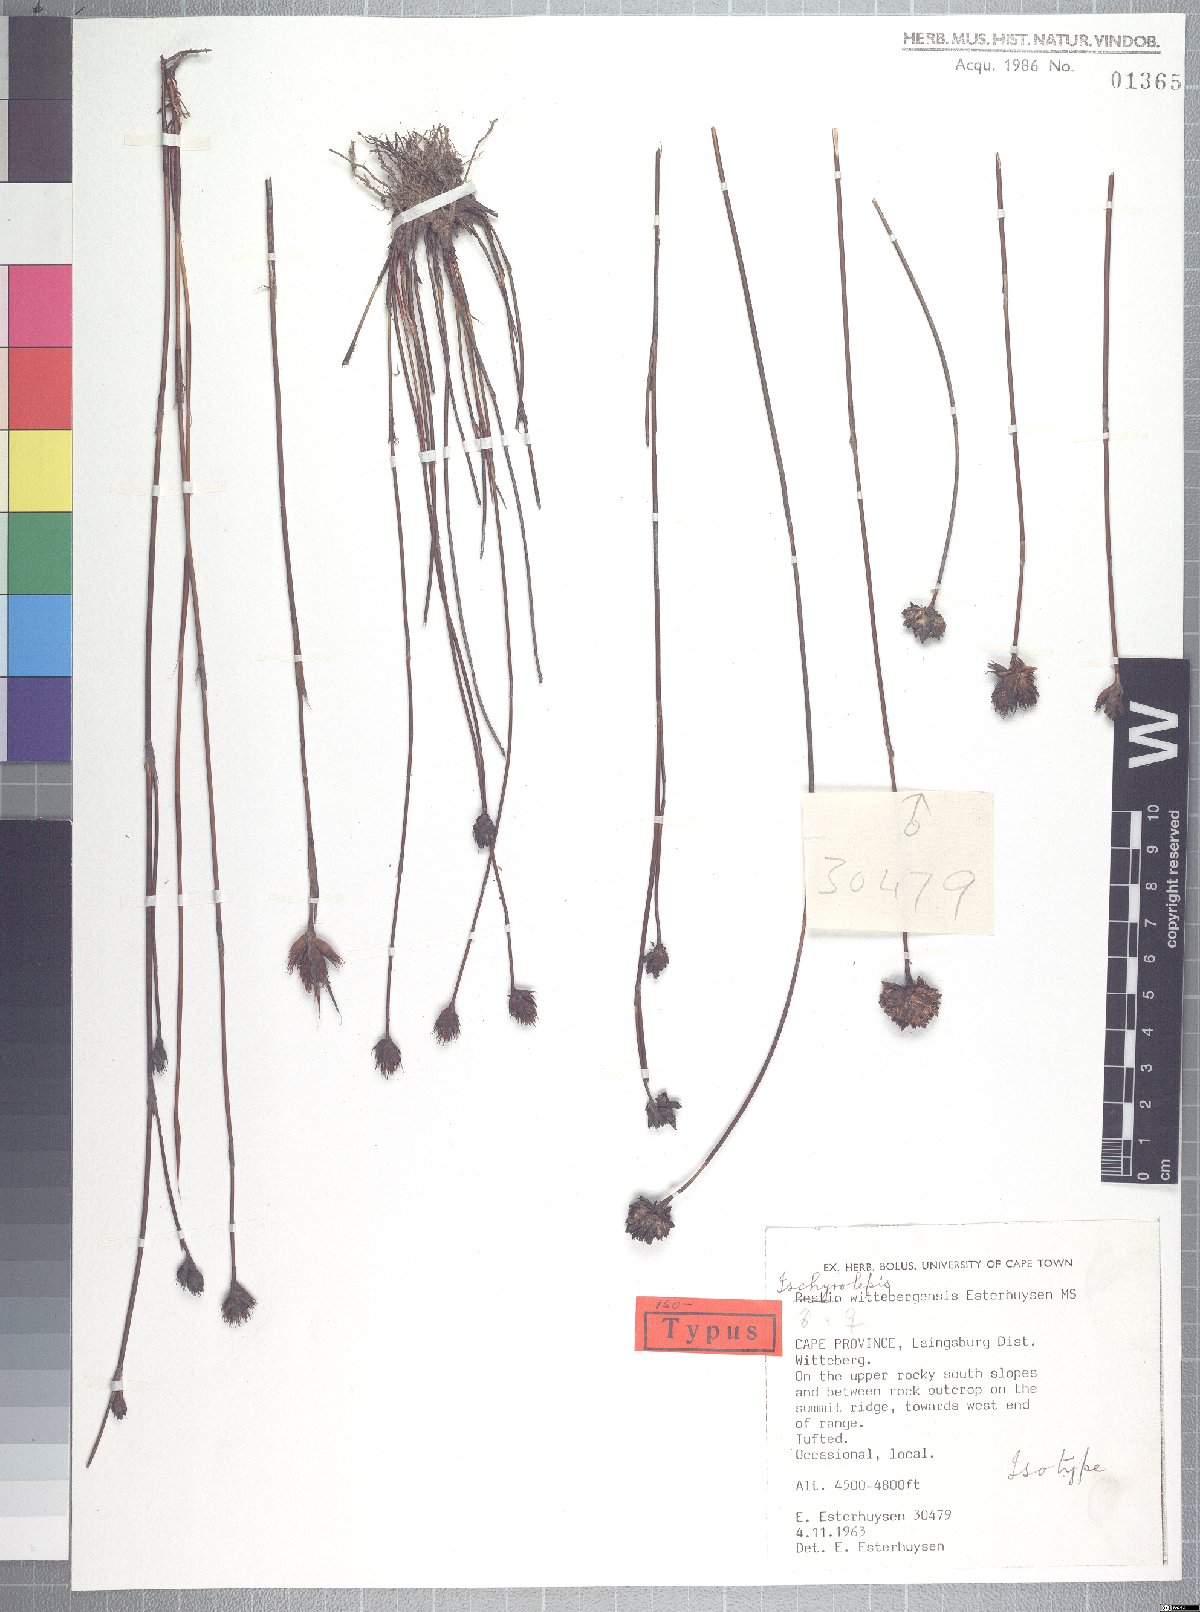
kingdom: Plantae
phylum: Tracheophyta
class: Liliopsida
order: Poales
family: Restionaceae
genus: Restio
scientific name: Restio wittebergensis
